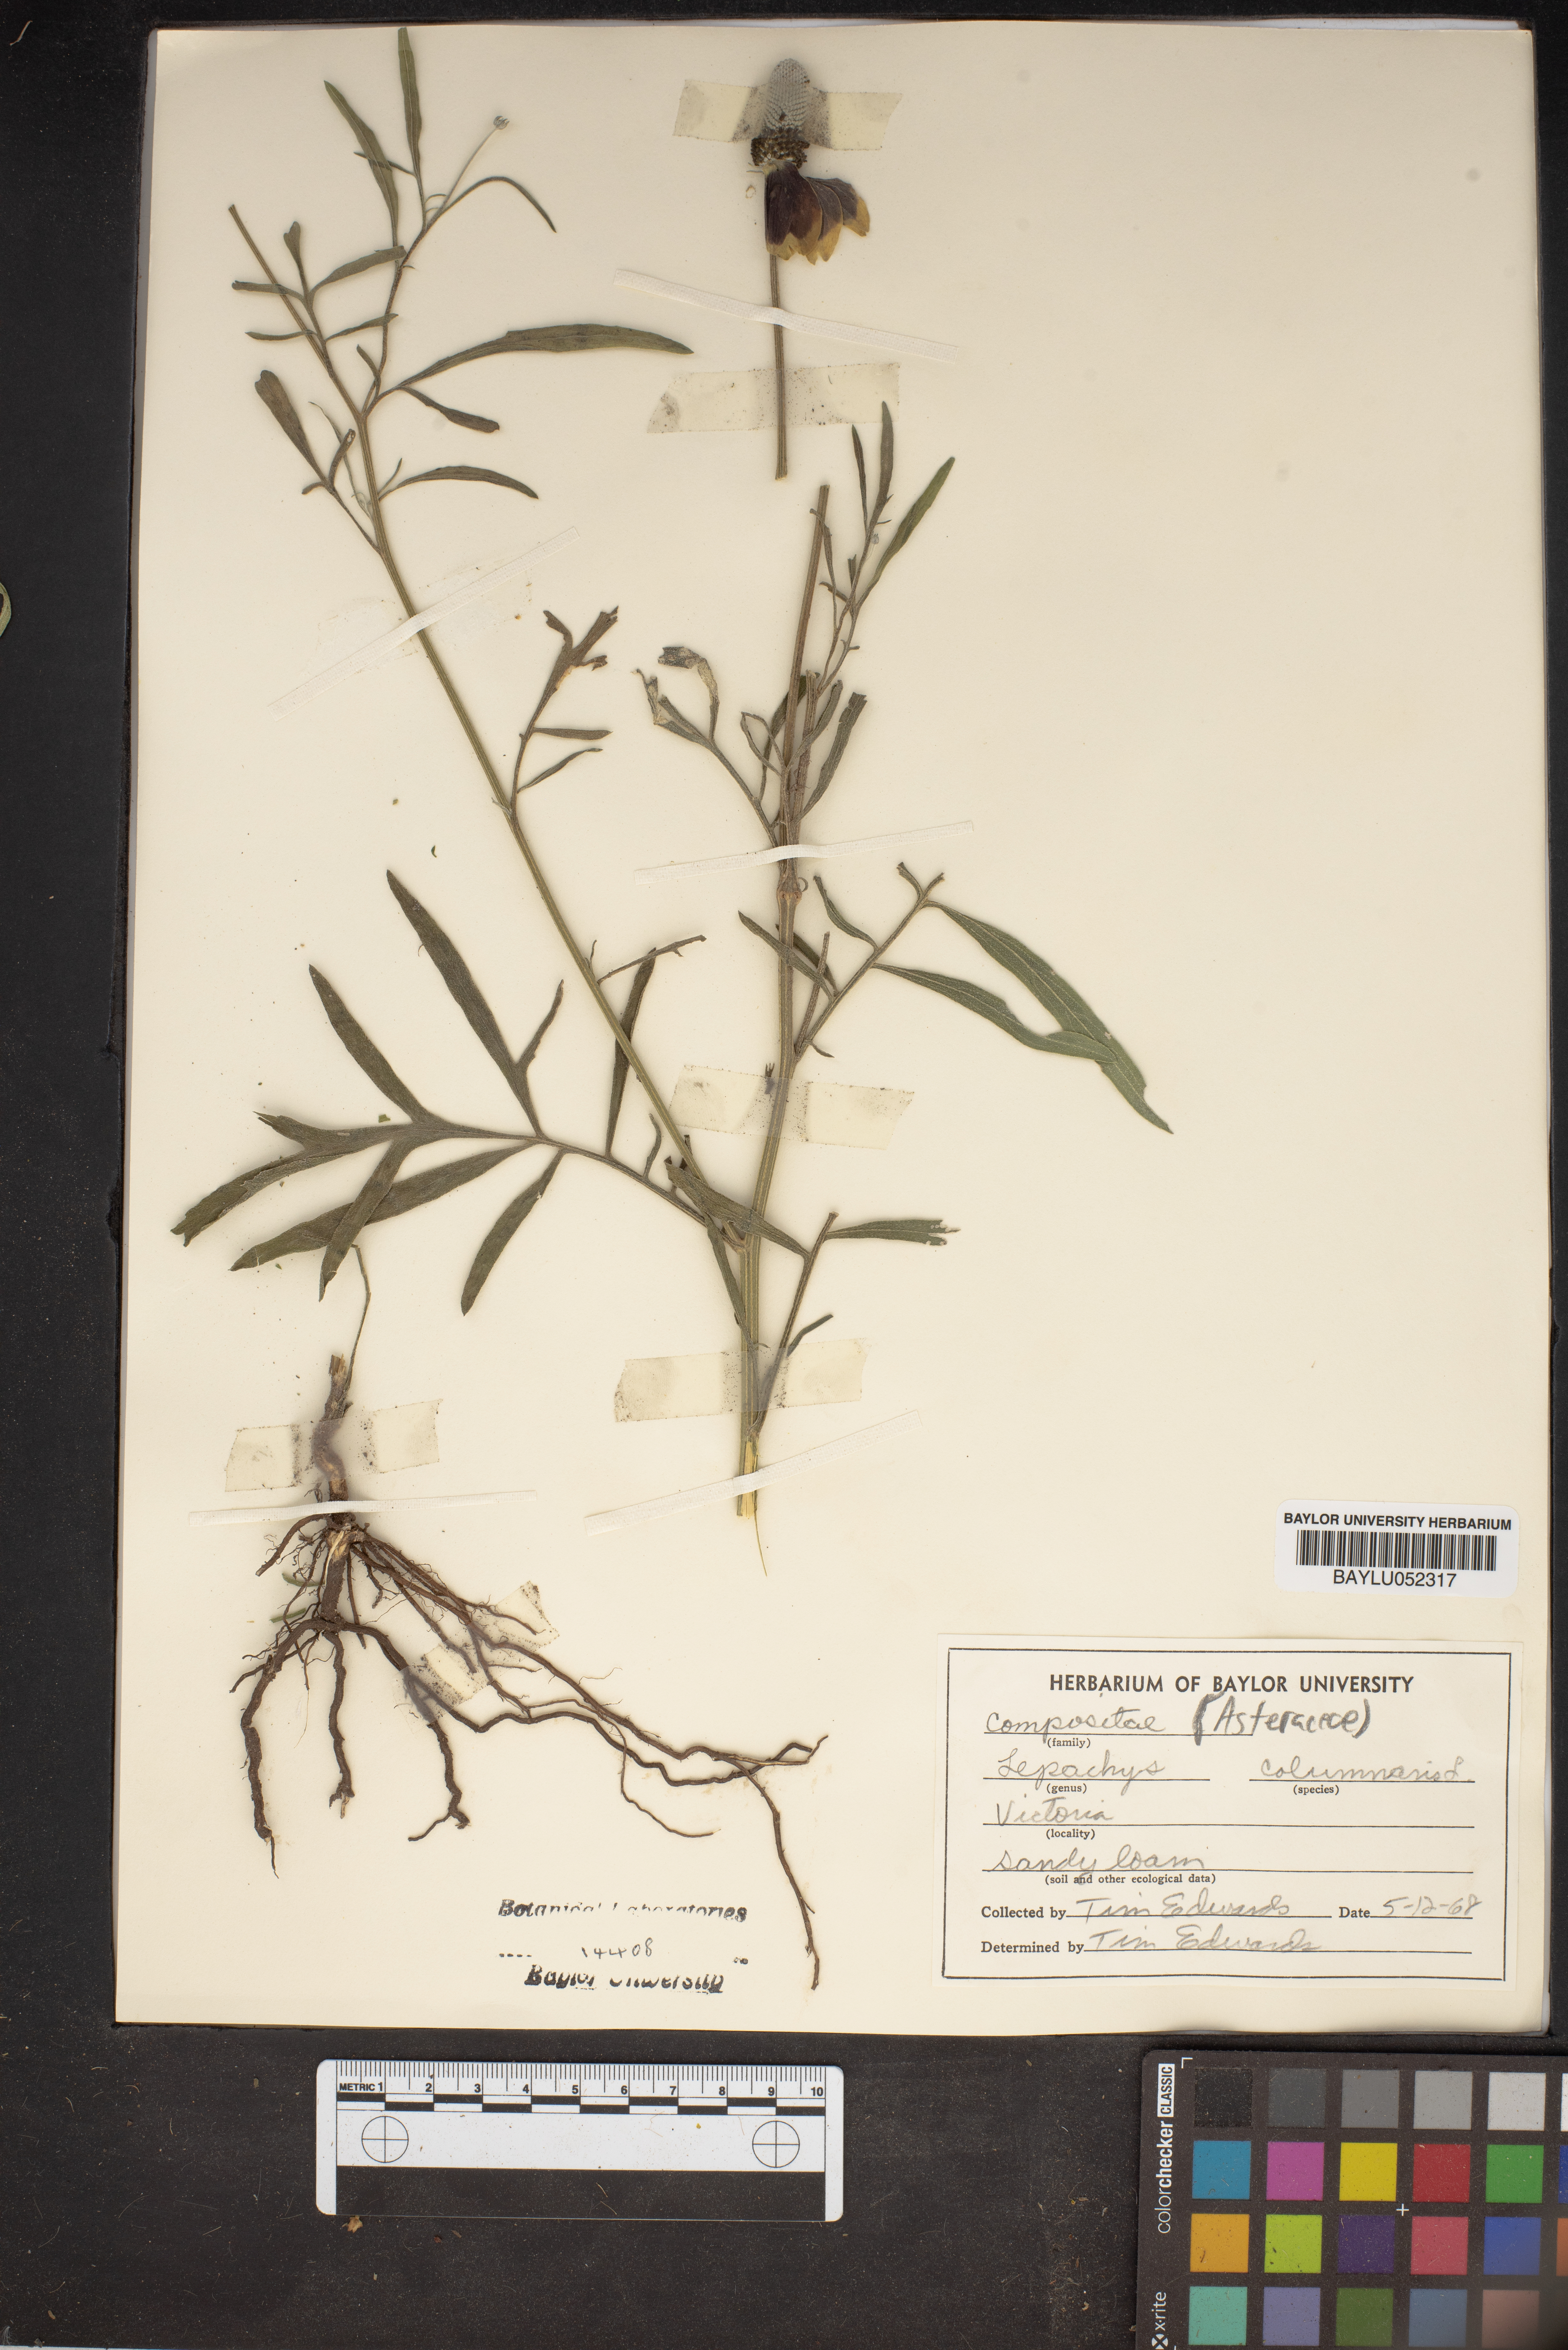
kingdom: Plantae
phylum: Tracheophyta
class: Magnoliopsida
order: Asterales
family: Asteraceae
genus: Ratibida
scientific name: Ratibida columnifera
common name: Prairie coneflower
